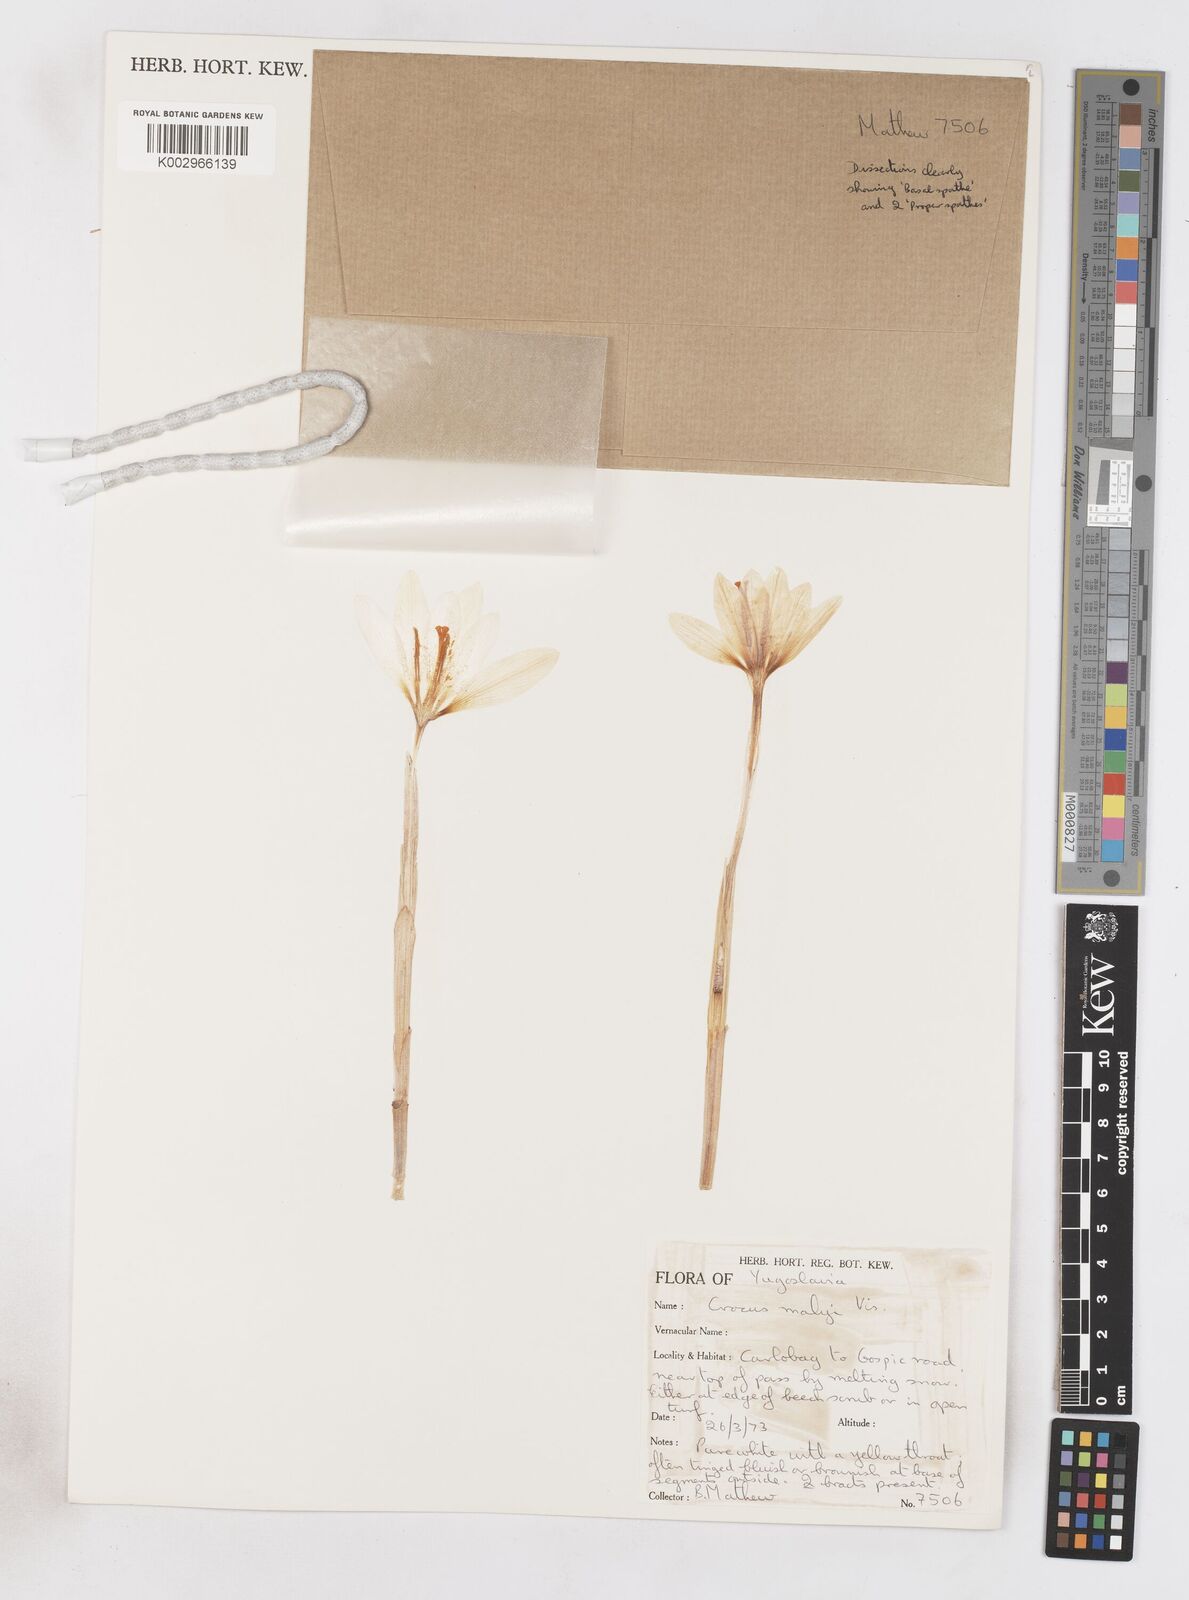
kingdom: Plantae
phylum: Tracheophyta
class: Liliopsida
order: Asparagales
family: Iridaceae
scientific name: Iridaceae
